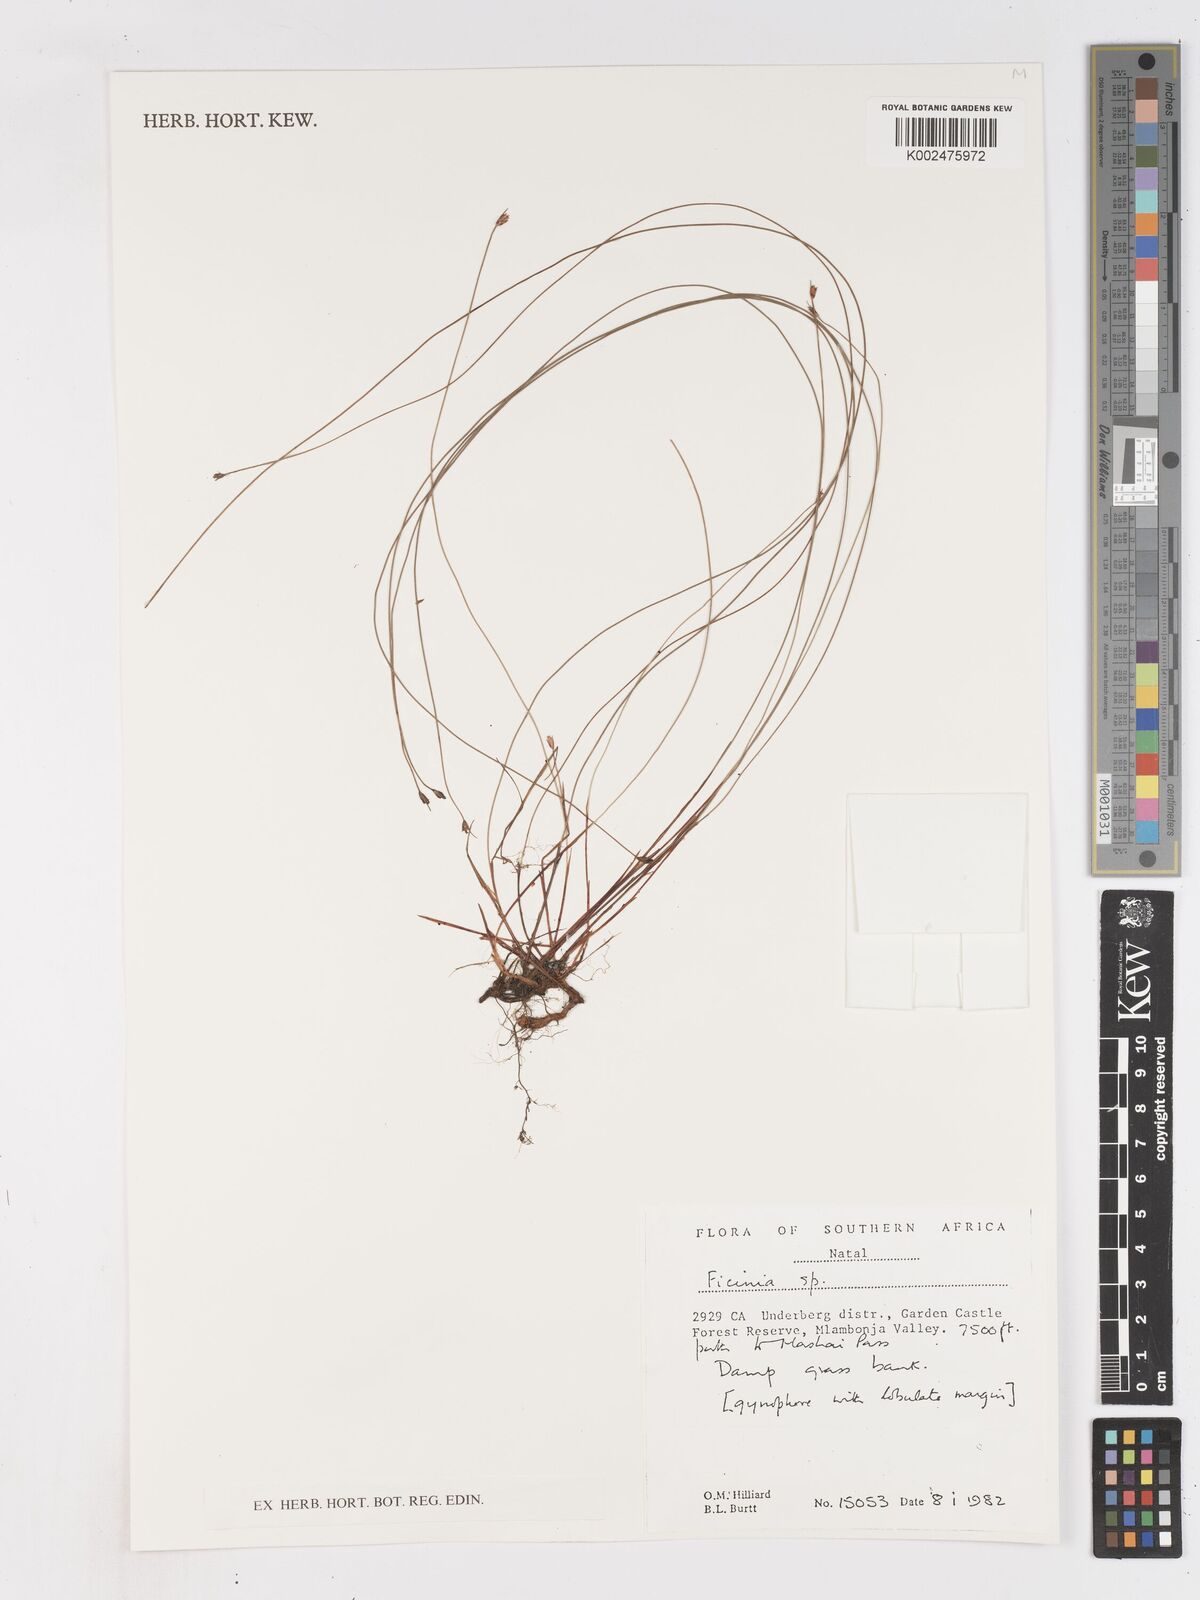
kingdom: Plantae
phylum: Tracheophyta
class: Liliopsida
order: Poales
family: Cyperaceae
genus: Ficinia
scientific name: Ficinia filiculmea
